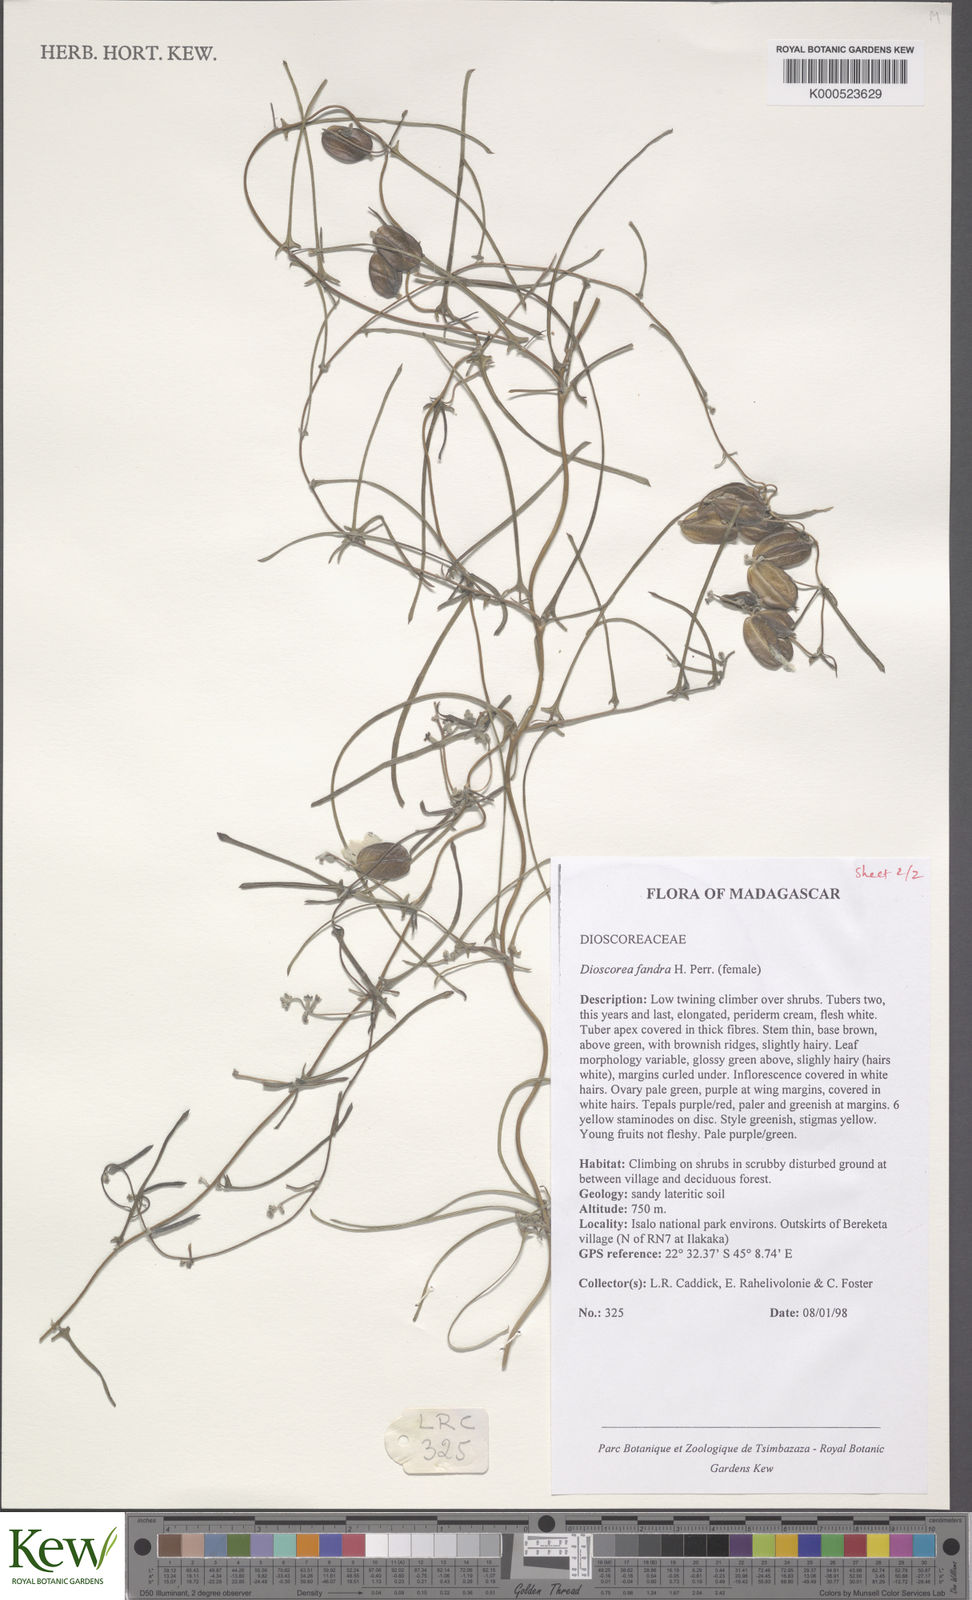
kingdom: Plantae
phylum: Tracheophyta
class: Liliopsida
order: Dioscoreales
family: Dioscoreaceae
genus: Dioscorea
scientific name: Dioscorea fandra
